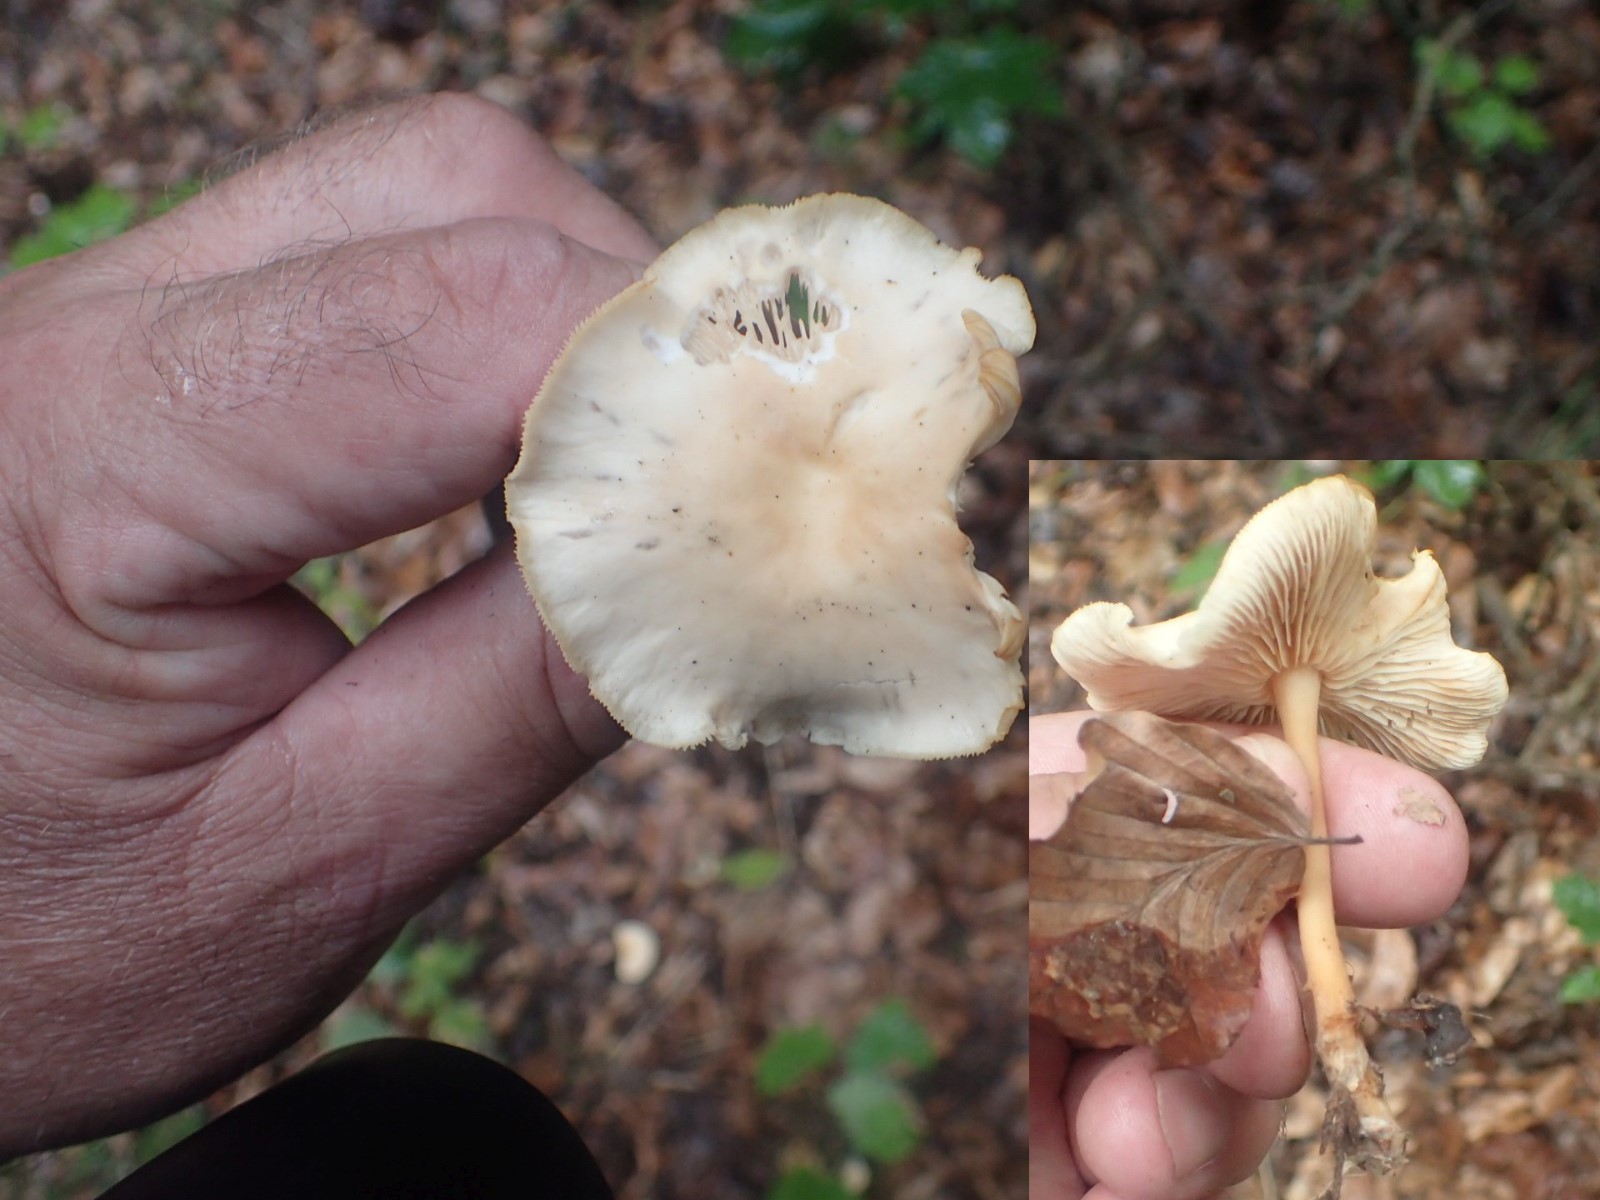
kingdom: Fungi
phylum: Basidiomycota
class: Agaricomycetes
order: Agaricales
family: Omphalotaceae
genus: Gymnopus
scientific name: Gymnopus dryophilus
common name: løv-fladhat
